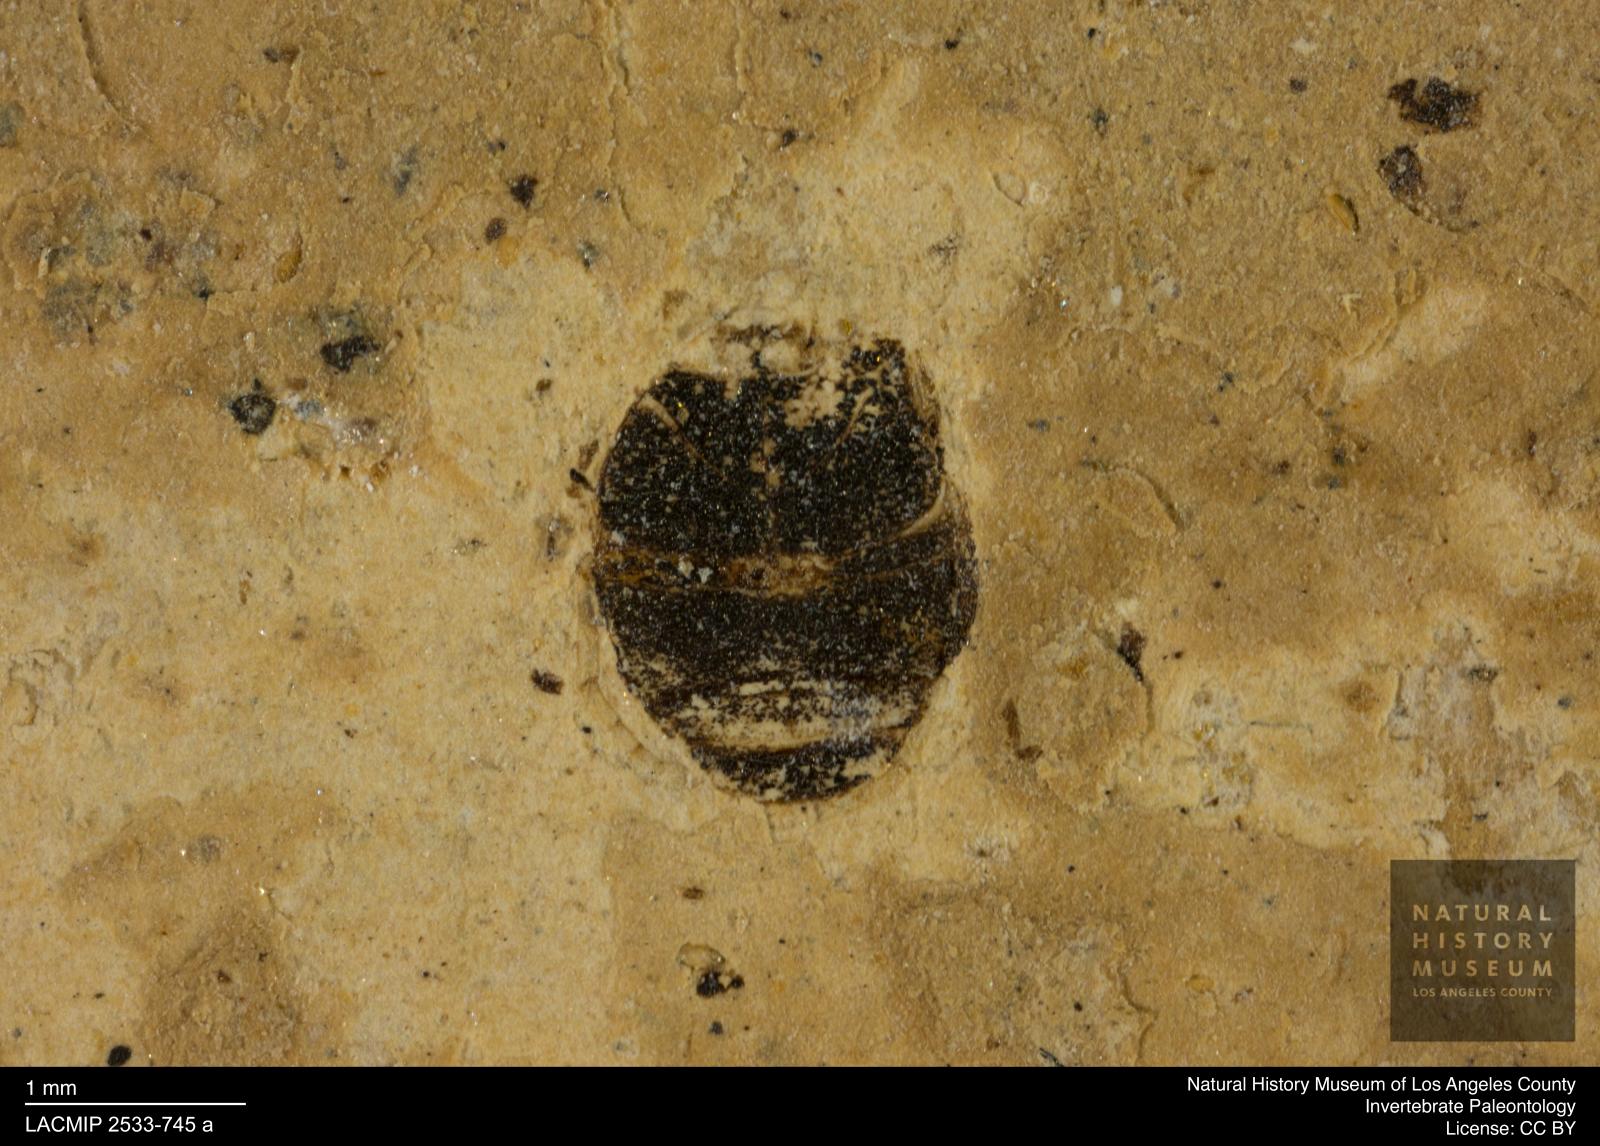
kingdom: Animalia
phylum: Arthropoda
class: Insecta
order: Coleoptera
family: Dytiscidae
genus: Oreodytes
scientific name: Oreodytes cryptolineatus
